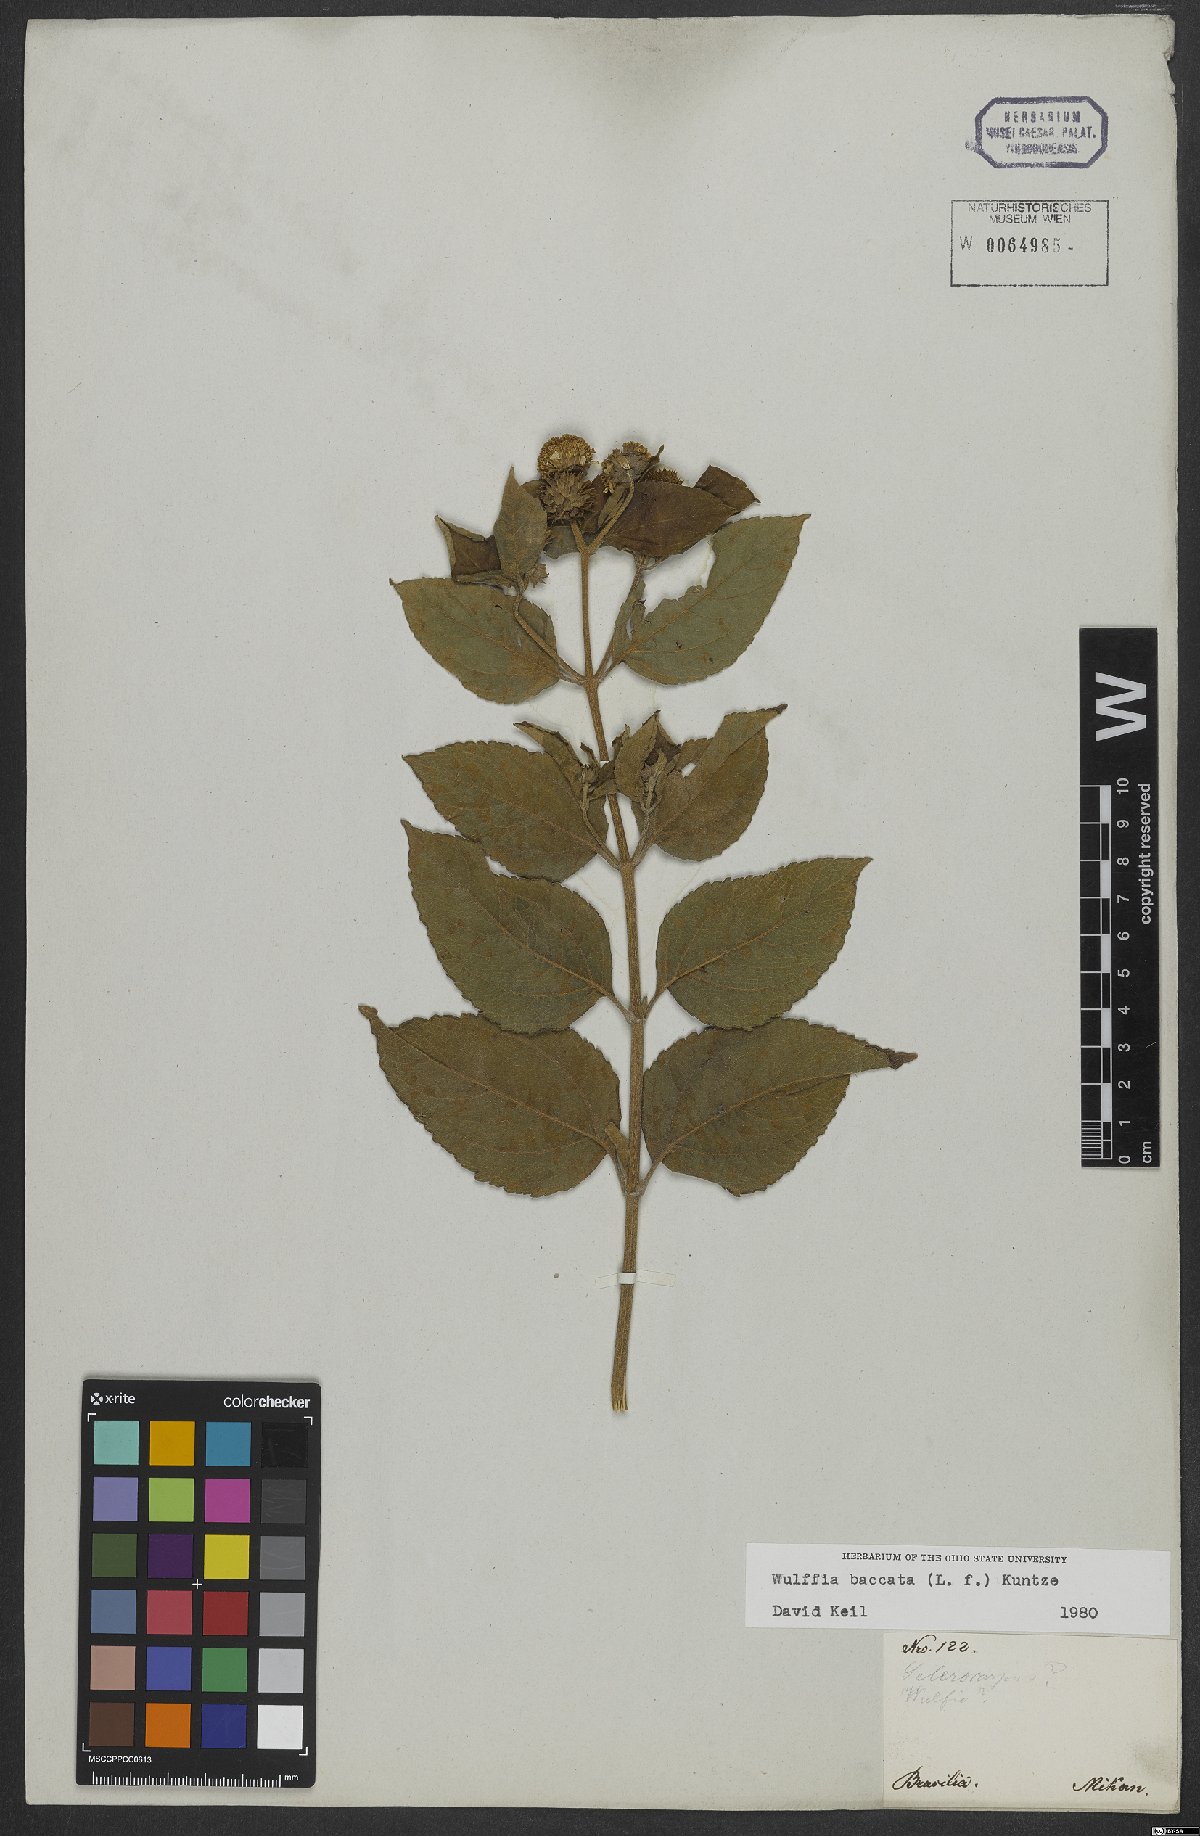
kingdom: Plantae
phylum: Tracheophyta
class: Magnoliopsida
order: Asterales
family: Asteraceae
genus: Tilesia
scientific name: Tilesia baccata
